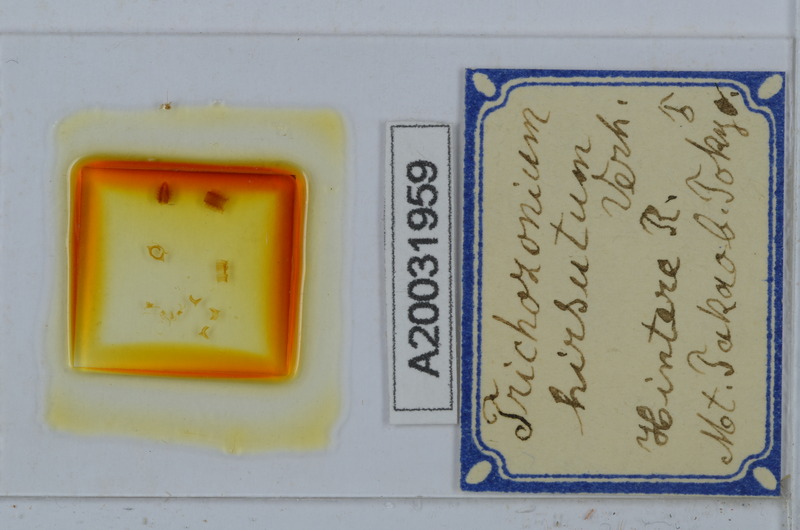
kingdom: Animalia
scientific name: Animalia
